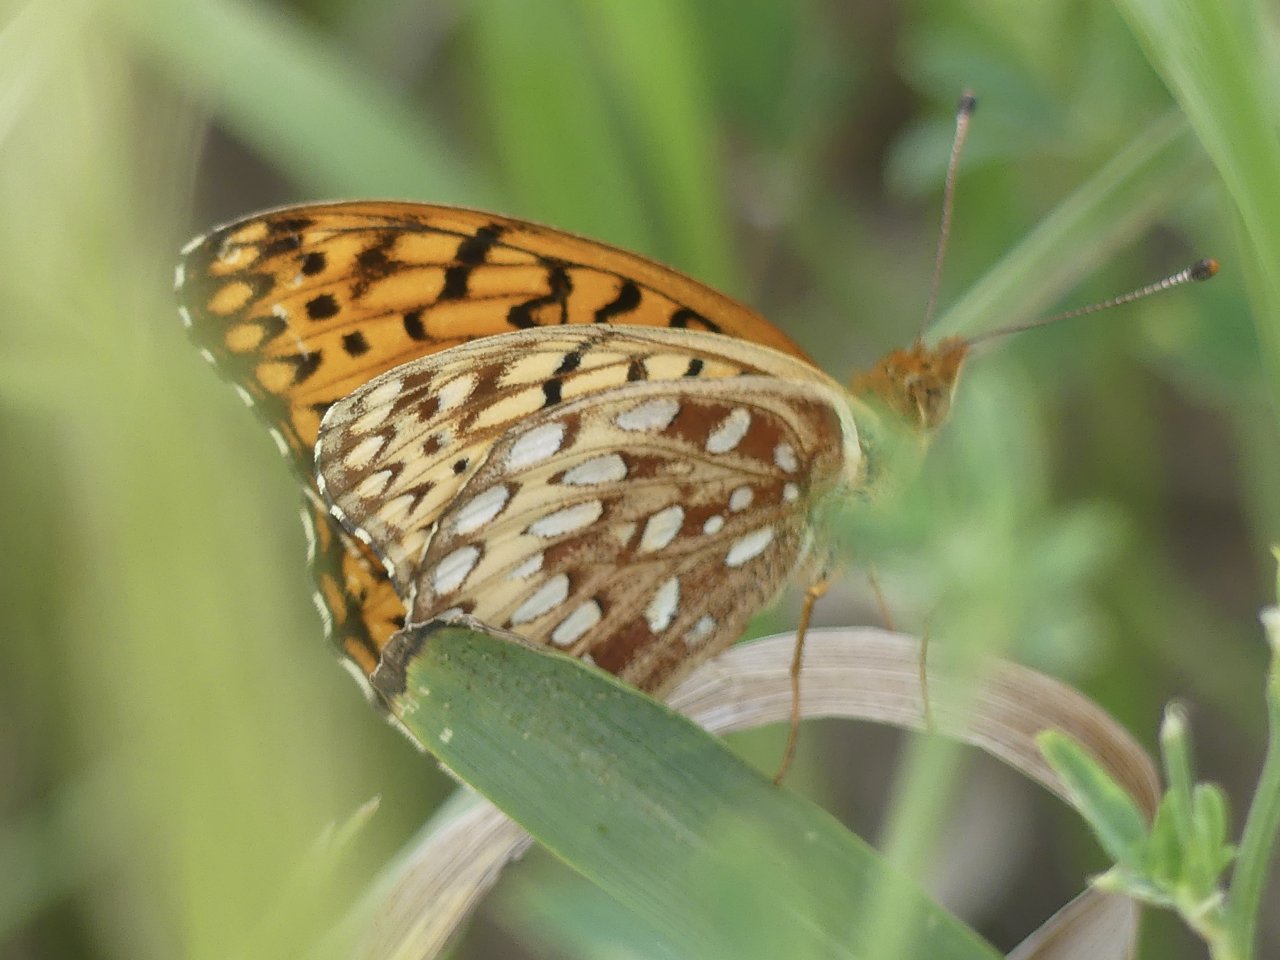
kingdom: Animalia
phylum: Arthropoda
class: Insecta
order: Lepidoptera
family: Nymphalidae
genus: Speyeria
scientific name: Speyeria
